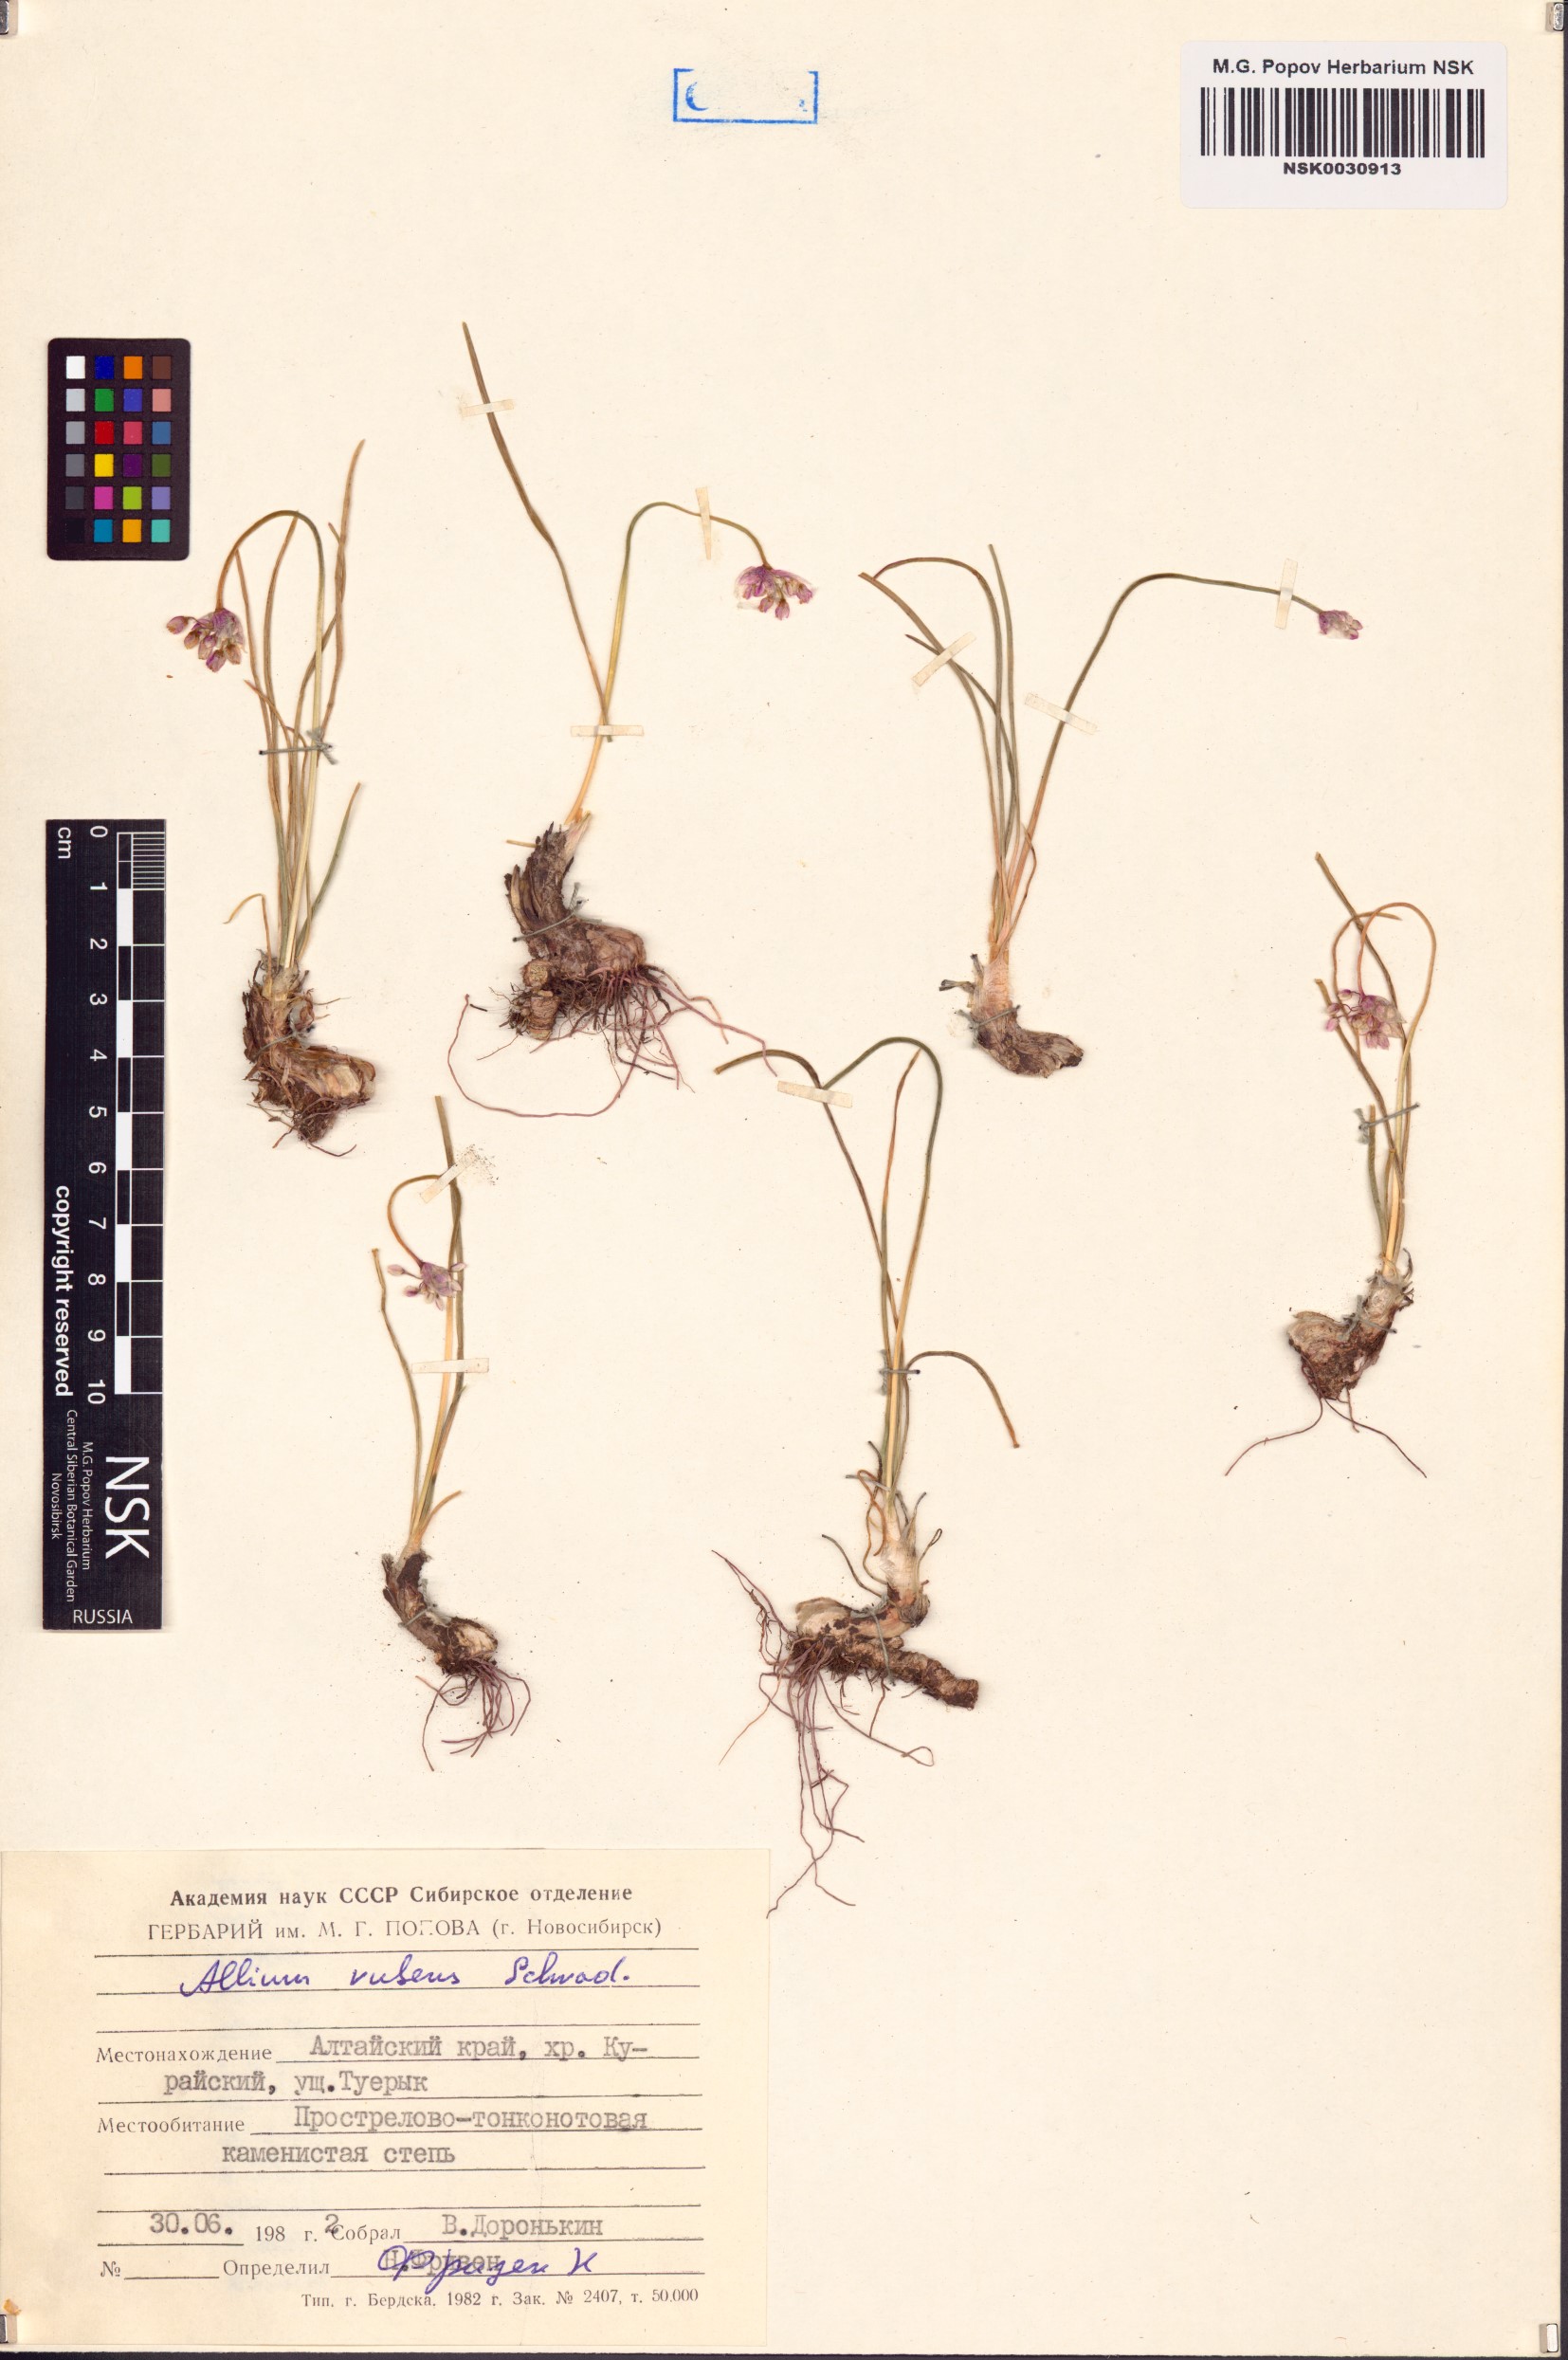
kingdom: Plantae
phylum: Tracheophyta
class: Liliopsida
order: Asparagales
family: Amaryllidaceae
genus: Allium
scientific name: Allium rubens
